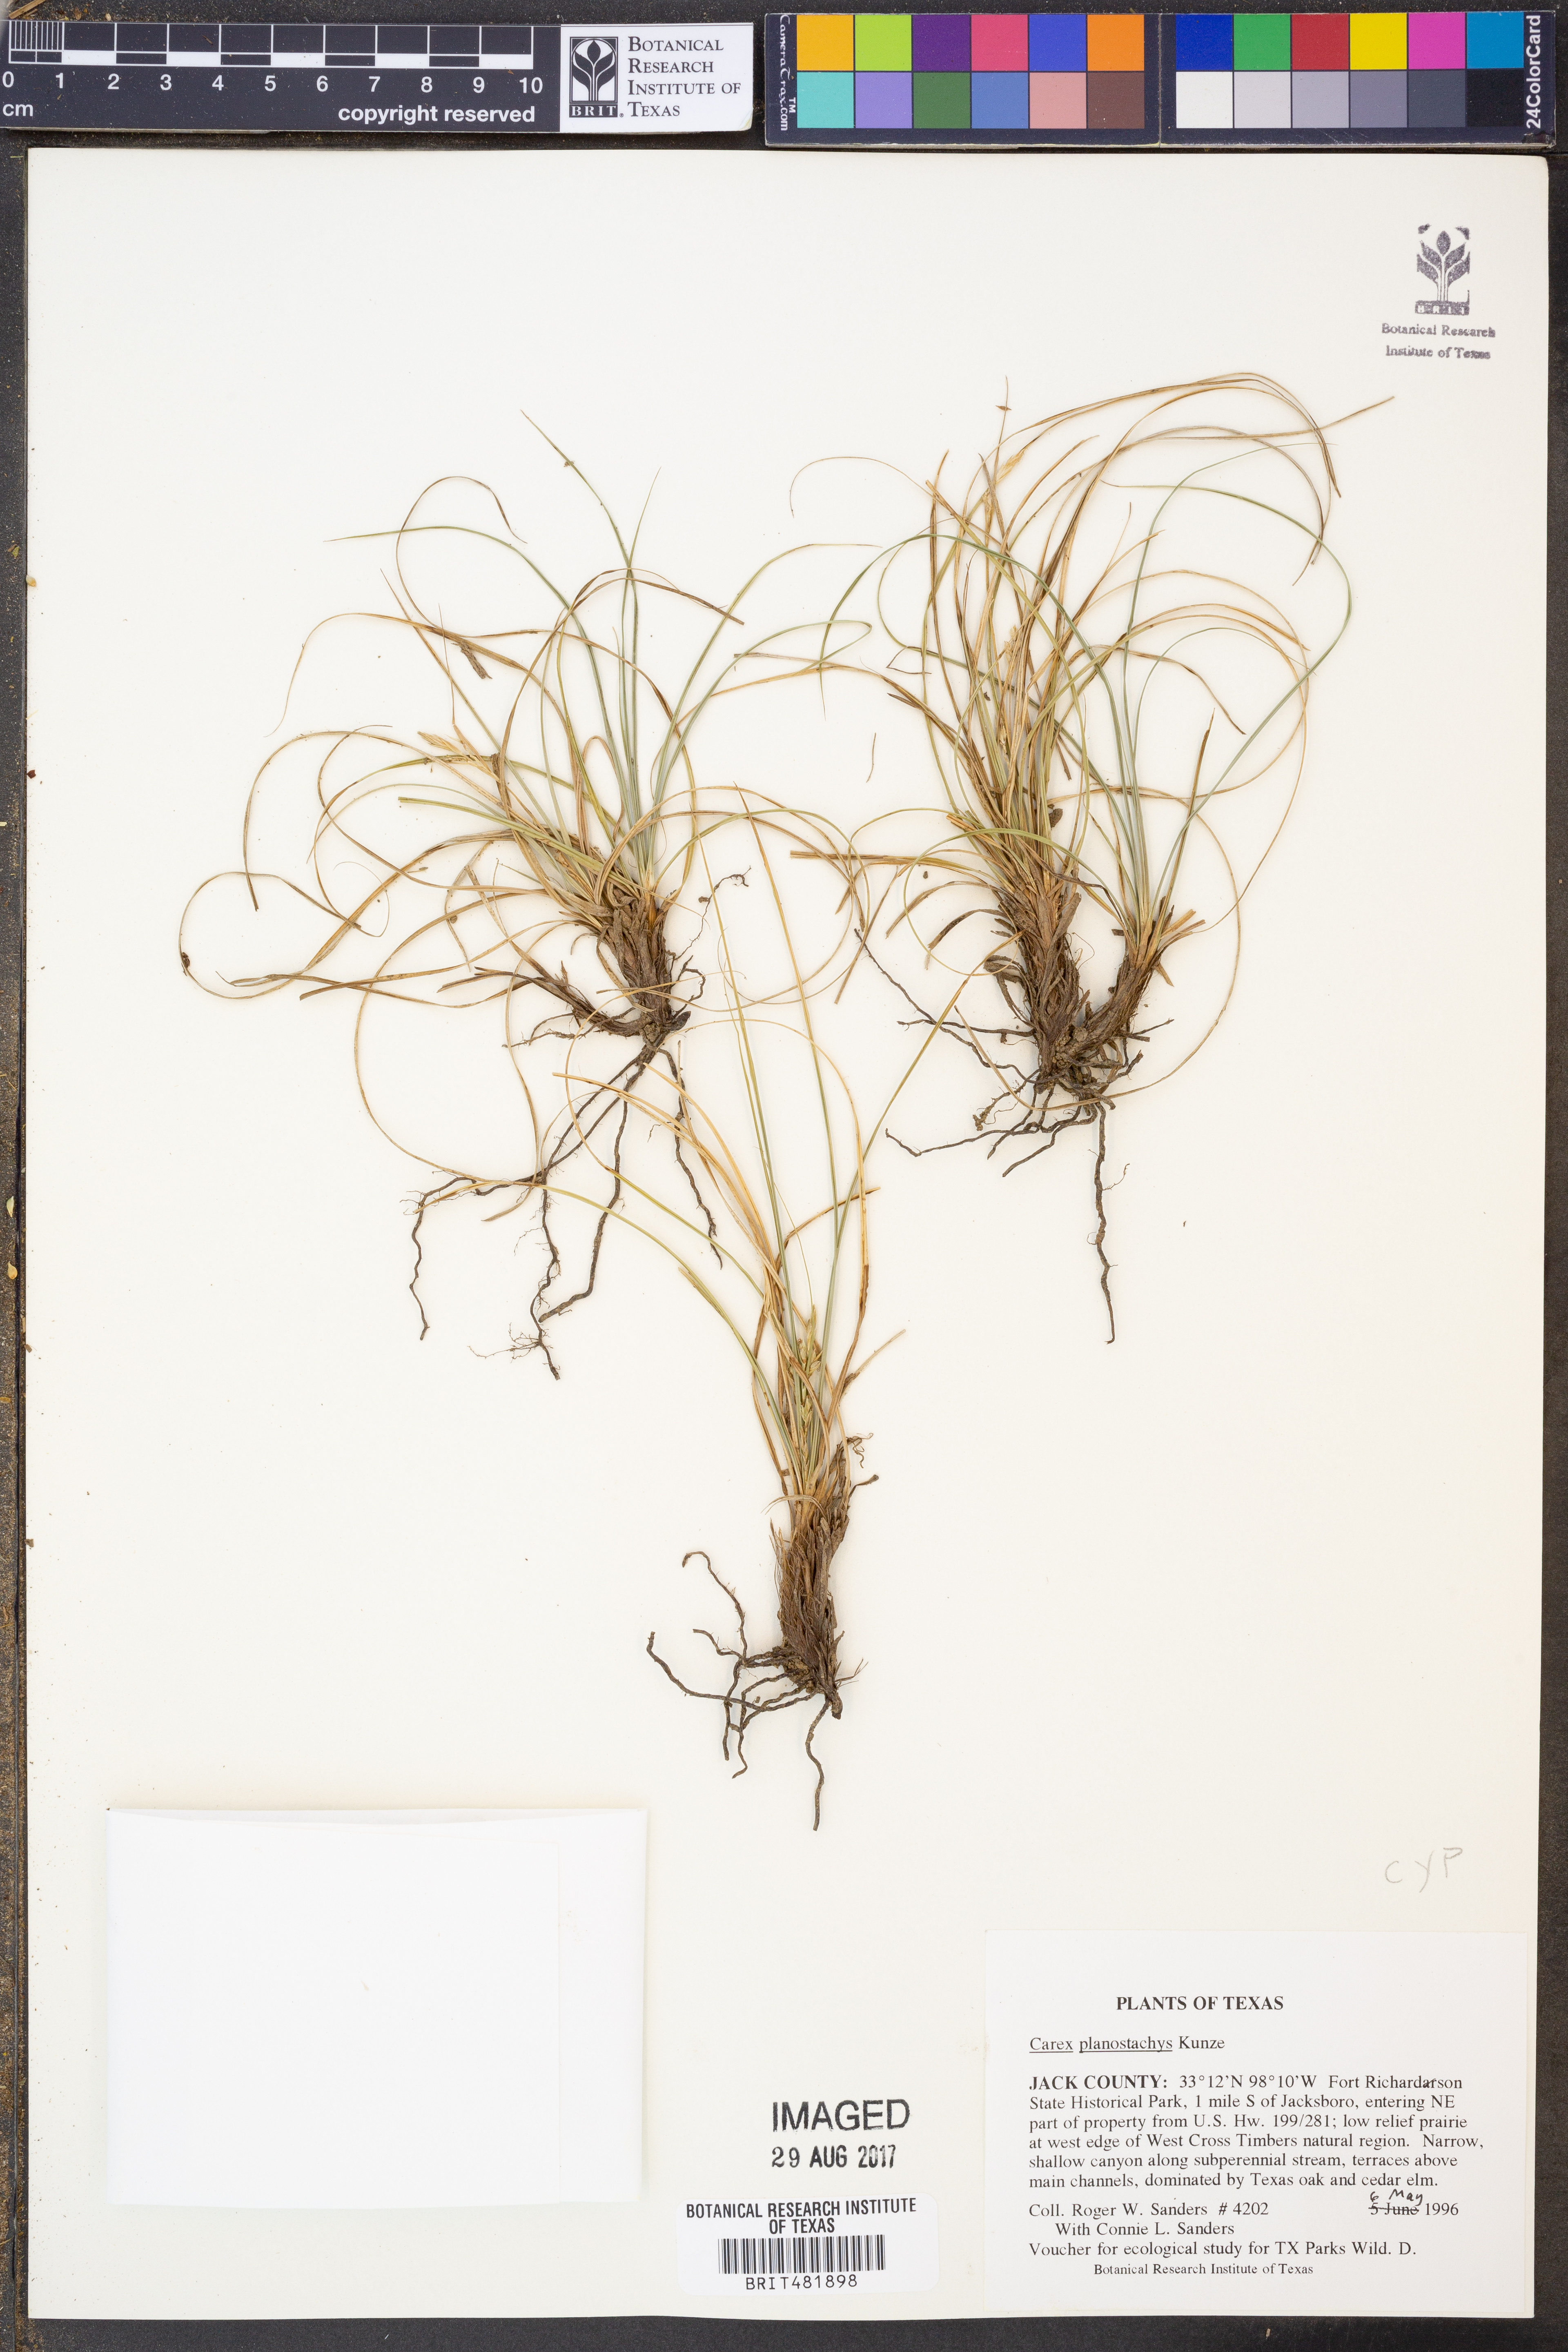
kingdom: Plantae
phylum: Tracheophyta
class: Liliopsida
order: Poales
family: Cyperaceae
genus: Carex
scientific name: Carex planostachys
